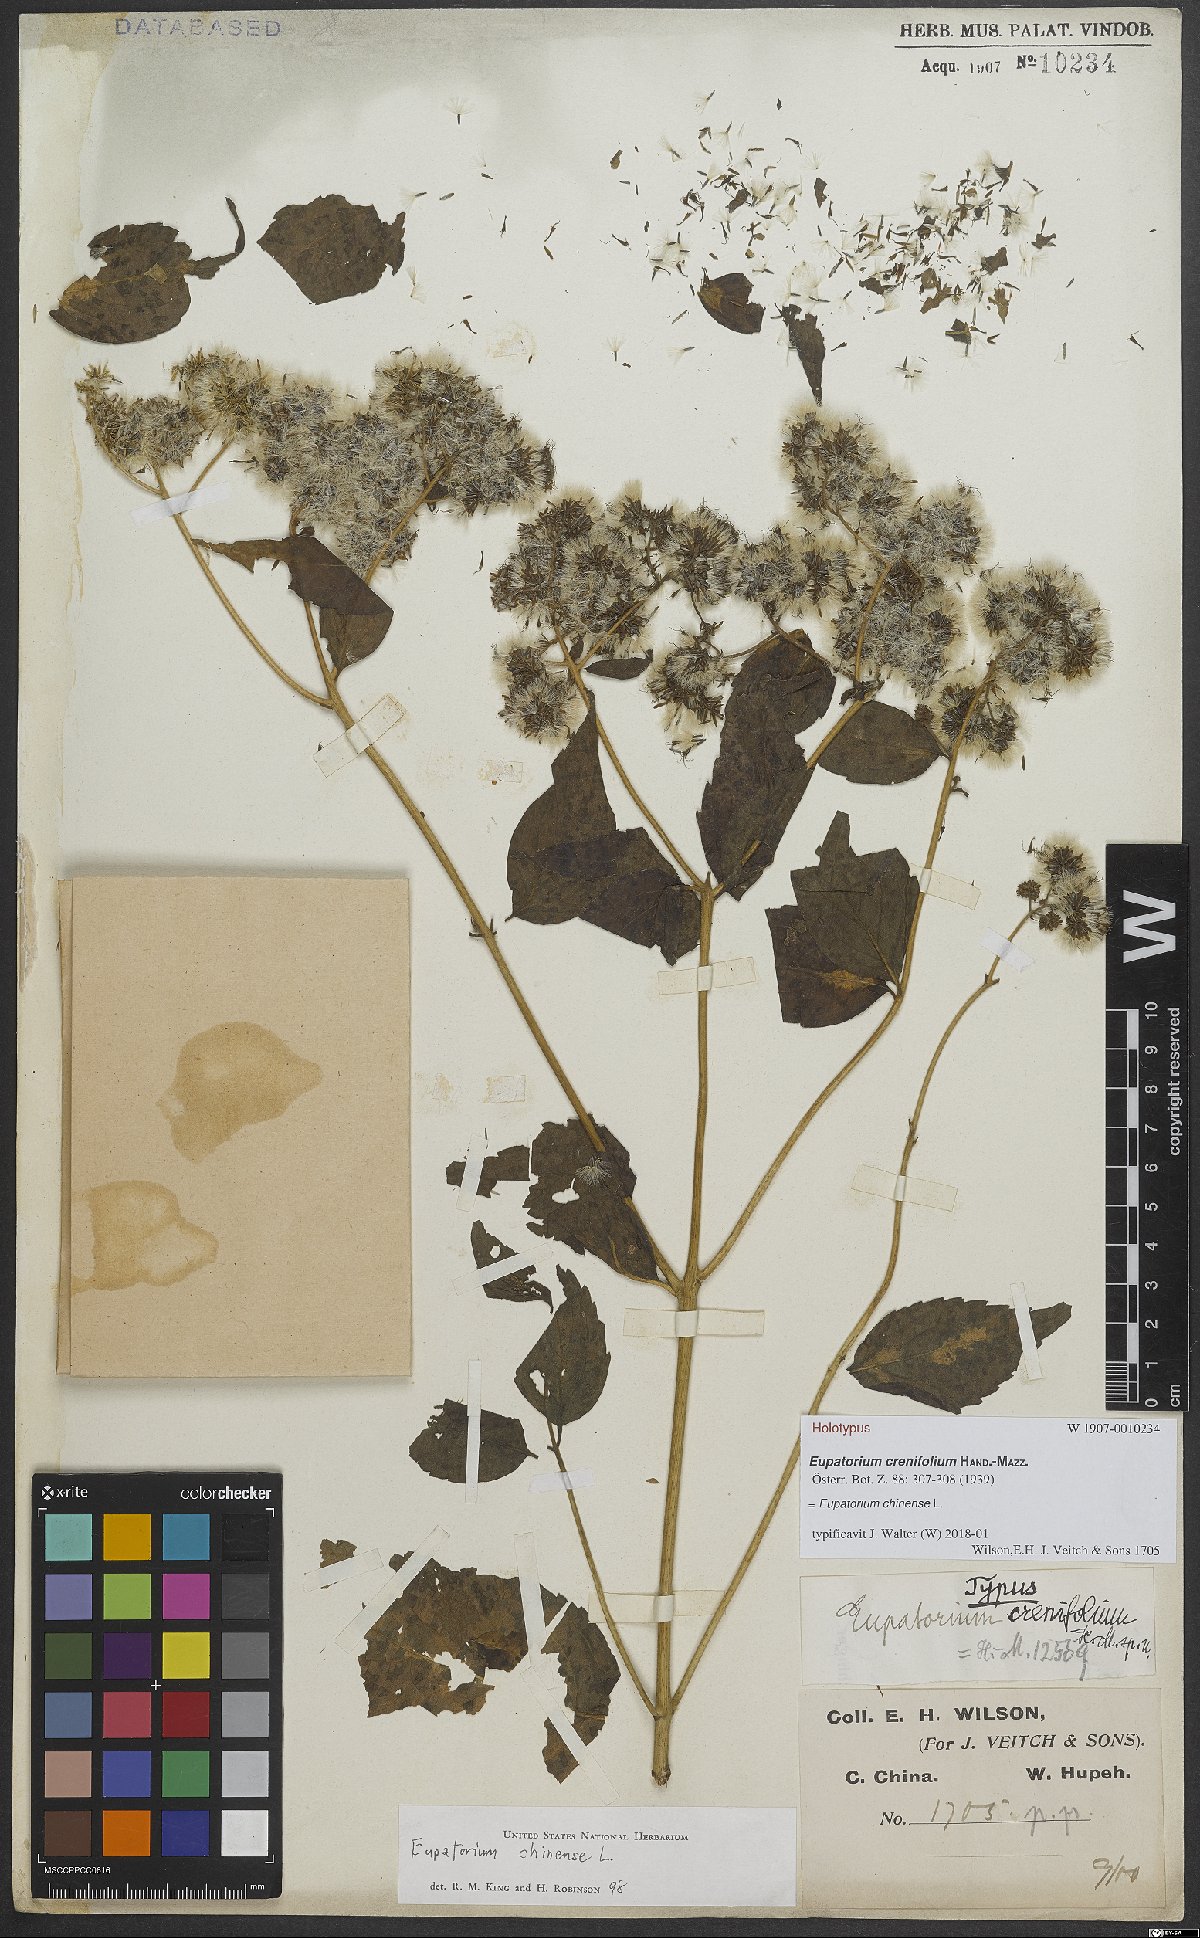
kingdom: Plantae
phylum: Tracheophyta
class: Magnoliopsida
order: Asterales
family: Asteraceae
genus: Eupatorium
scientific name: Eupatorium chinense
